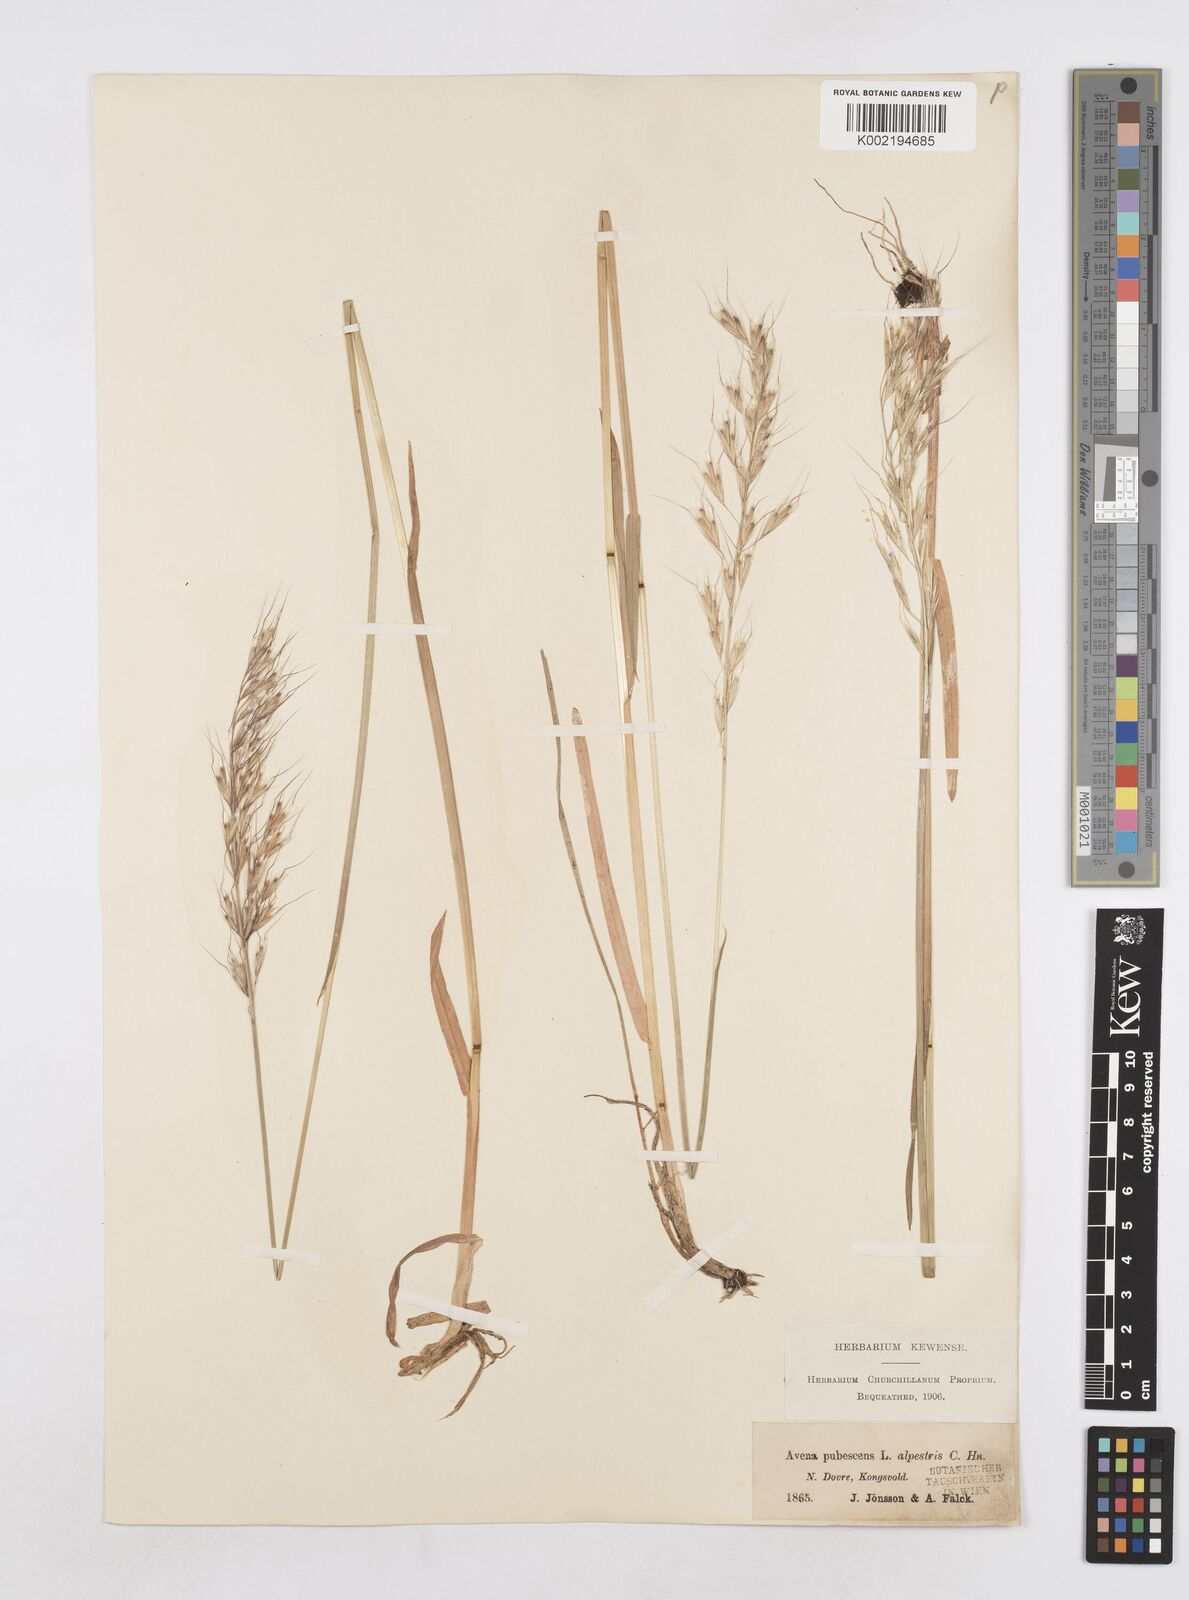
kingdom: Plantae
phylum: Tracheophyta
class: Liliopsida
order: Poales
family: Poaceae
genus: Avenula
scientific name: Avenula pubescens
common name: Downy alpine oatgrass
